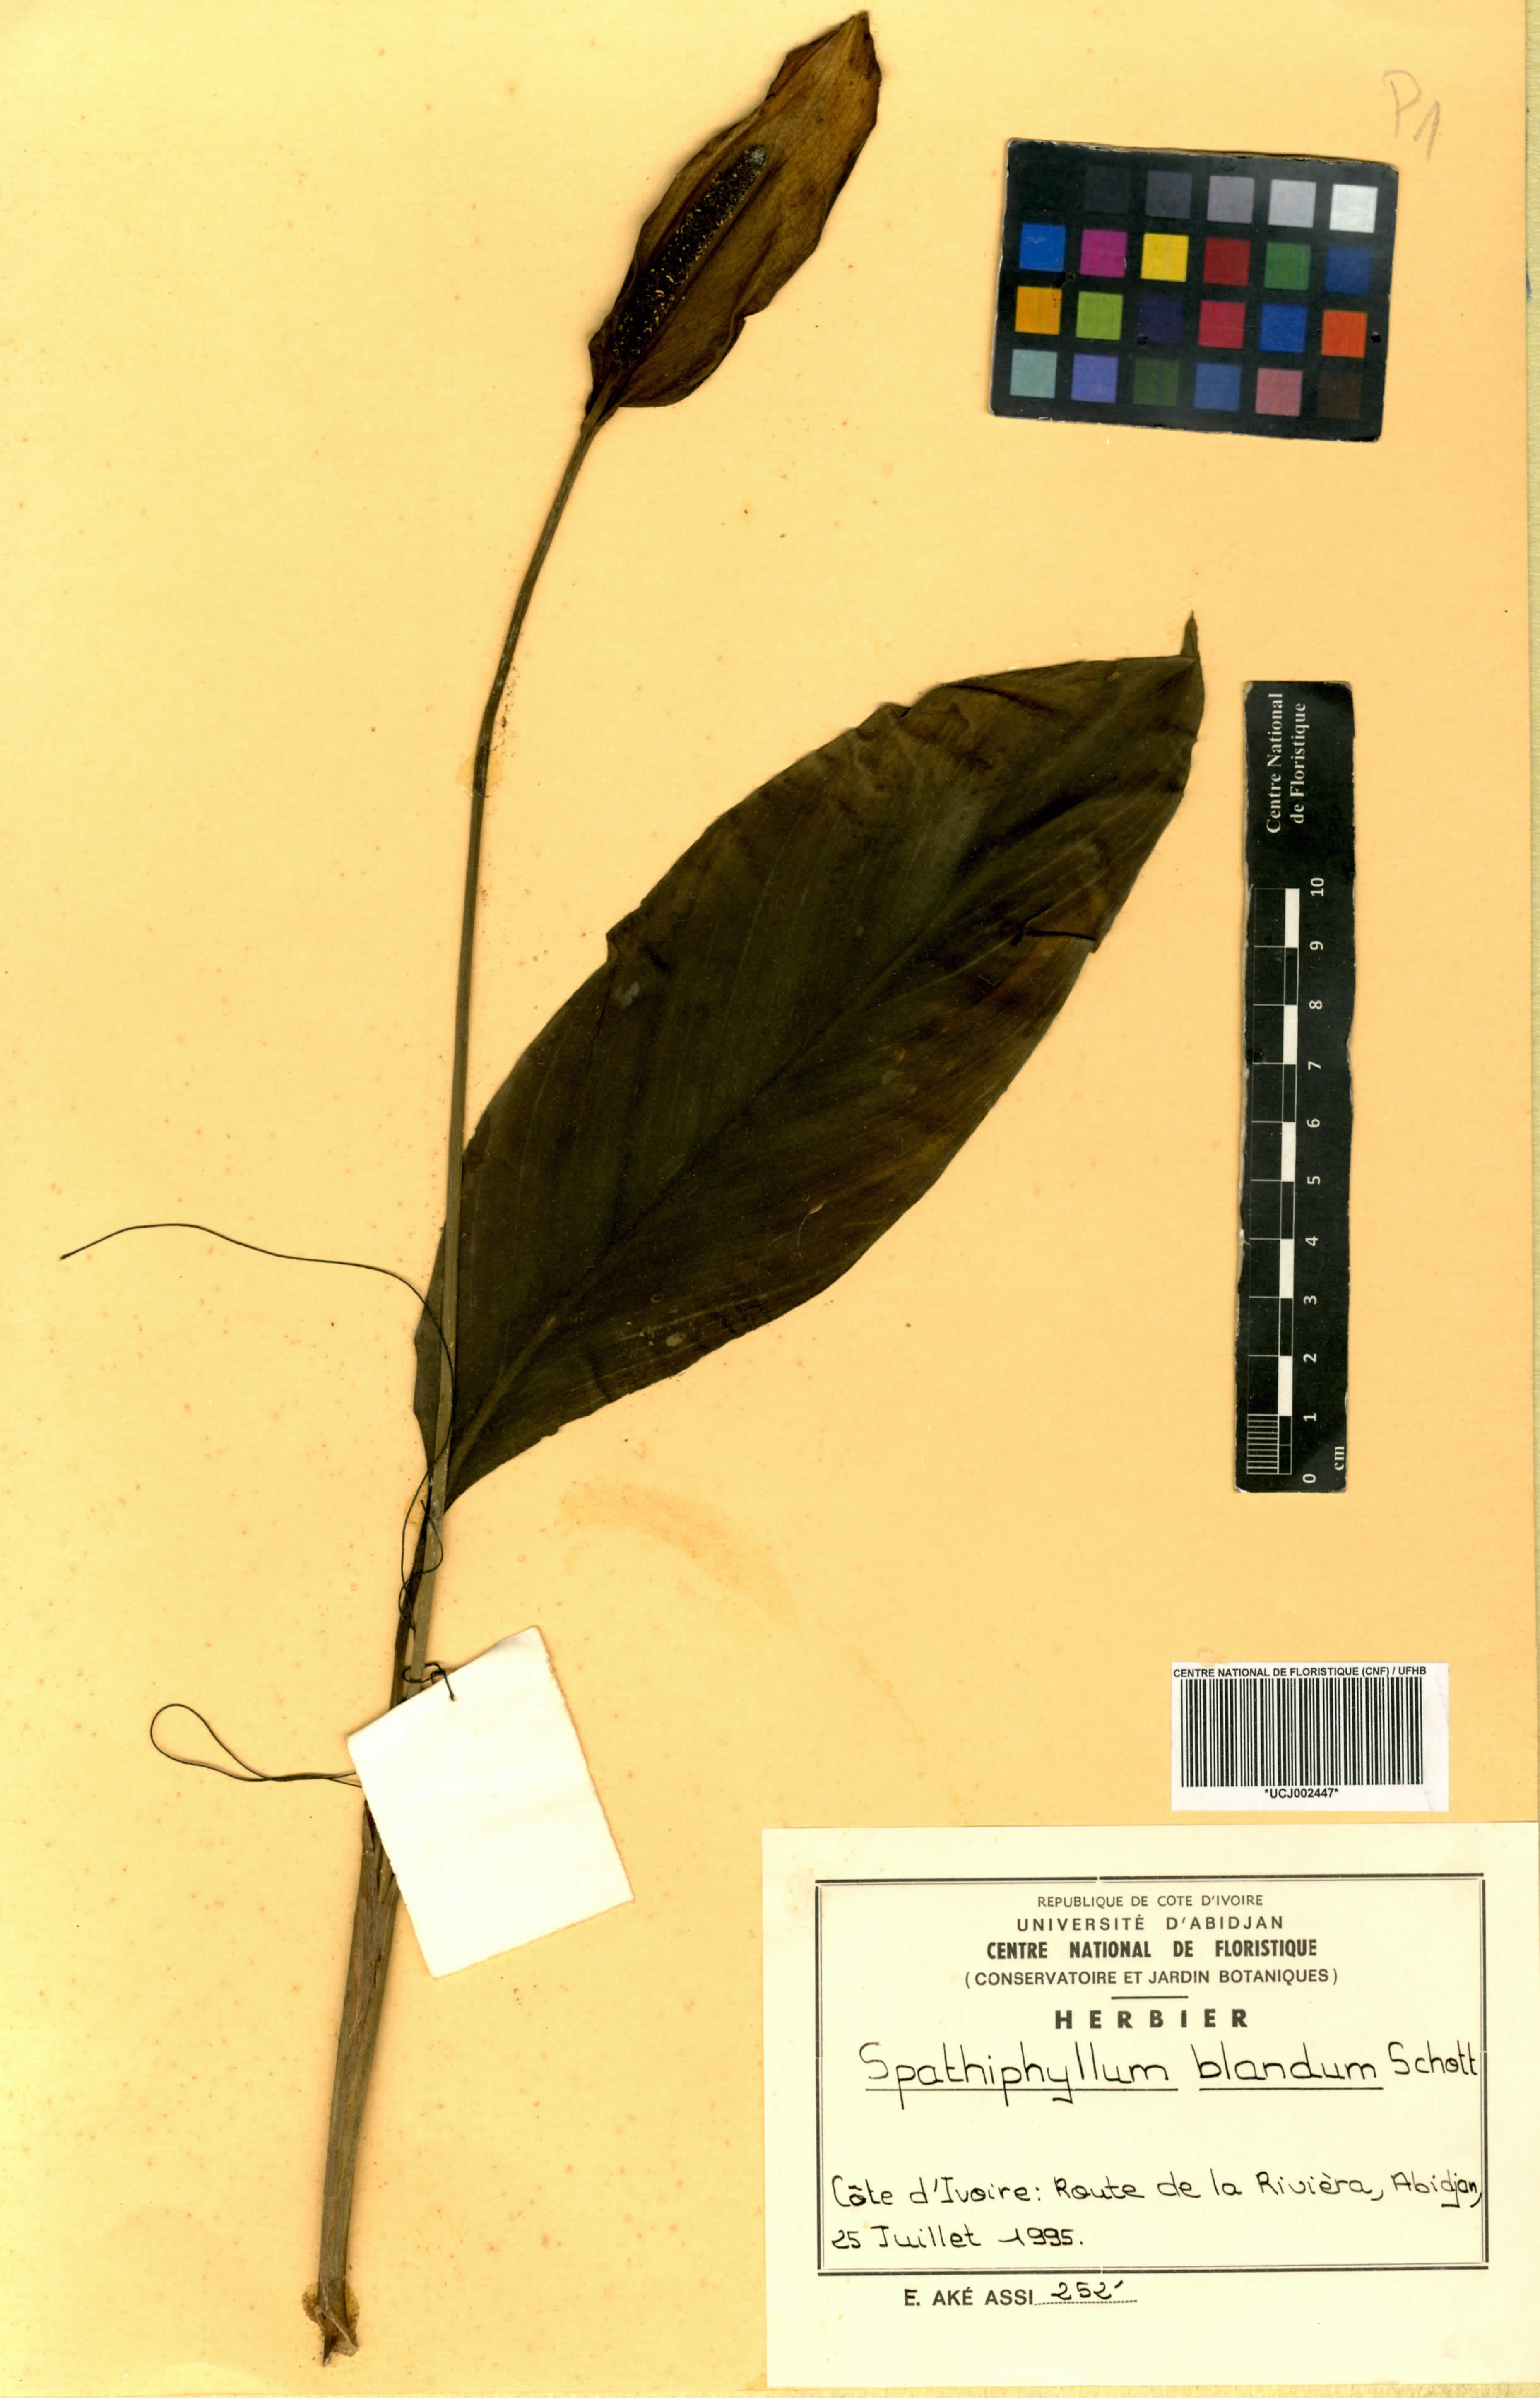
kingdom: Plantae
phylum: Tracheophyta
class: Liliopsida
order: Alismatales
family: Araceae
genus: Spathiphyllum
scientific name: Spathiphyllum blandum
